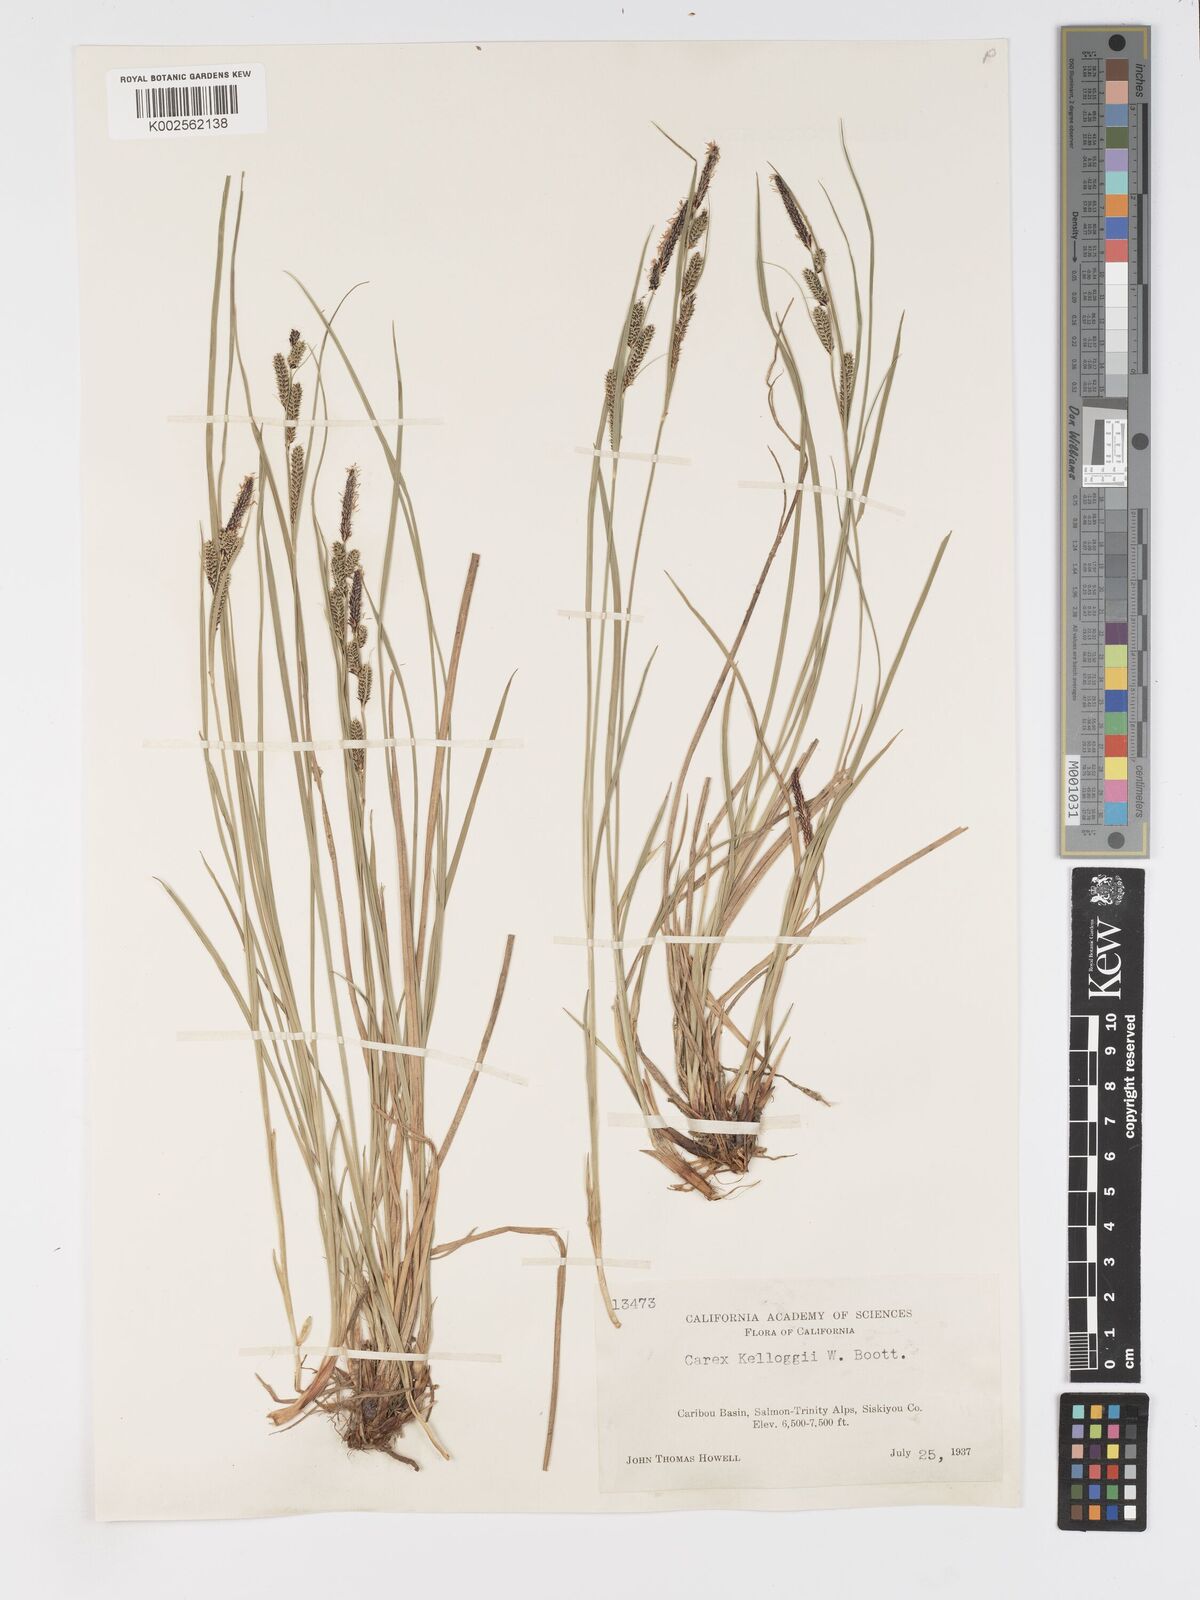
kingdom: Plantae
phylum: Tracheophyta
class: Liliopsida
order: Poales
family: Cyperaceae
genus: Carex
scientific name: Carex kelloggii
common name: Kellogg's sedge
